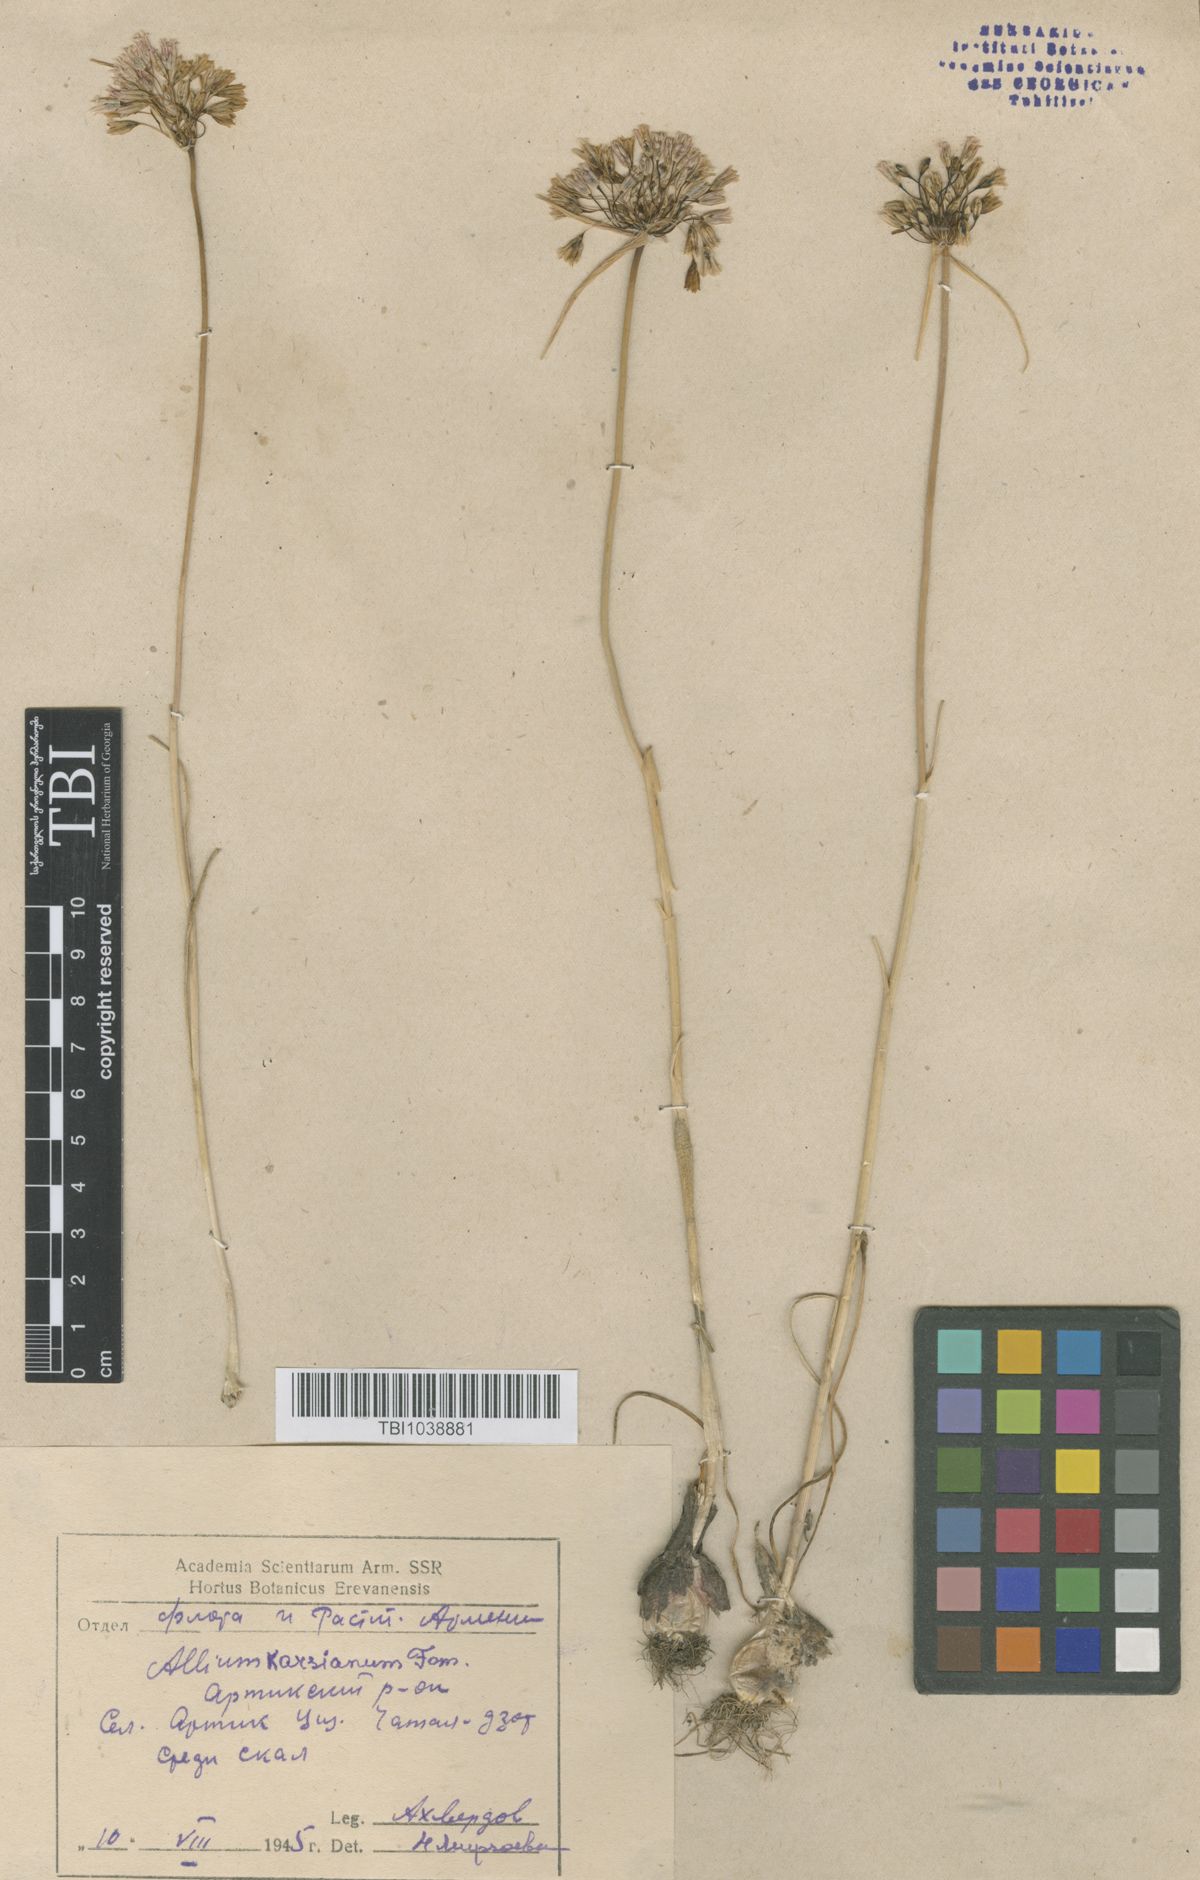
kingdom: Plantae
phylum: Tracheophyta
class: Liliopsida
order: Asparagales
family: Amaryllidaceae
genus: Allium
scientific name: Allium paniculatum
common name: Pale garlic
